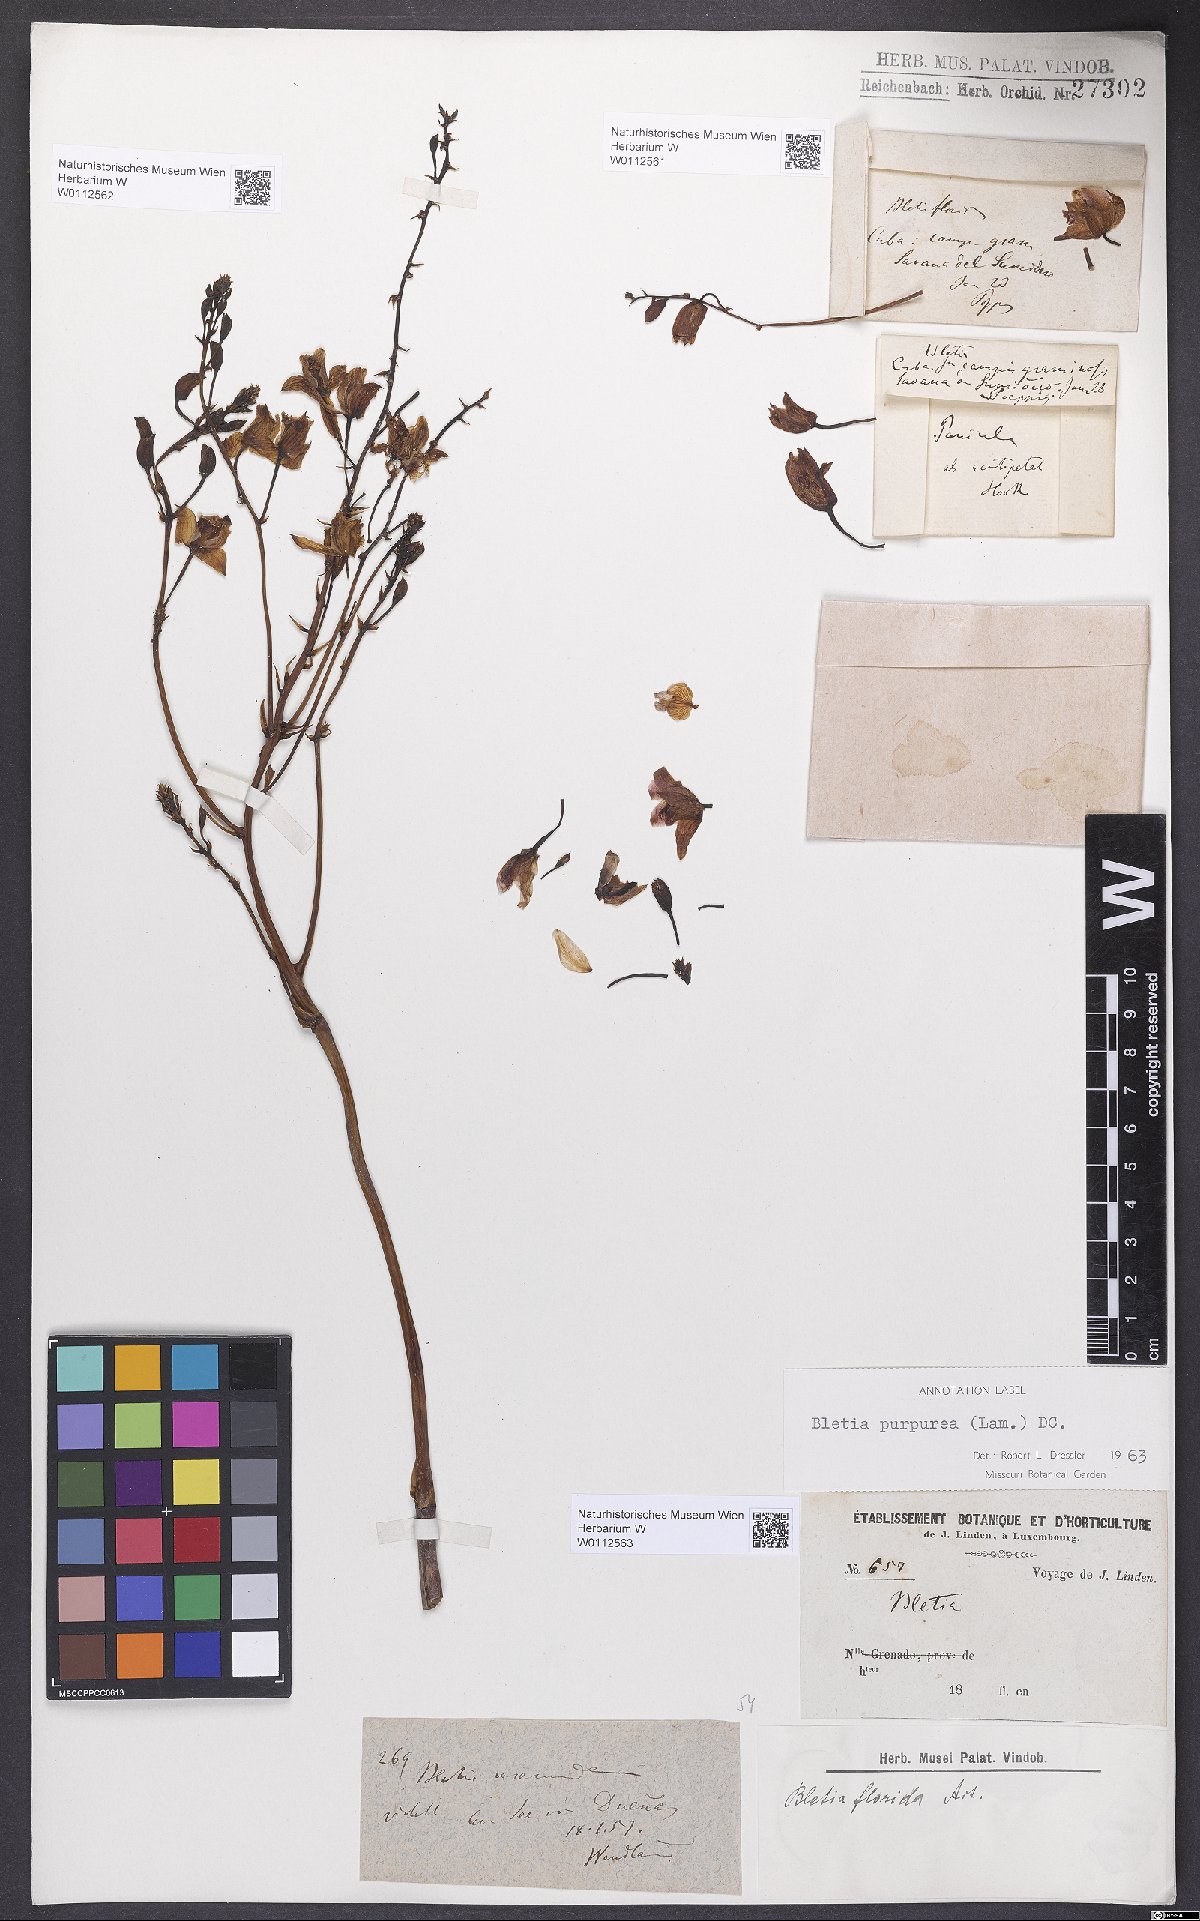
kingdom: Plantae
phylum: Tracheophyta
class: Liliopsida
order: Asparagales
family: Orchidaceae
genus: Bletia
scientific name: Bletia purpurea
